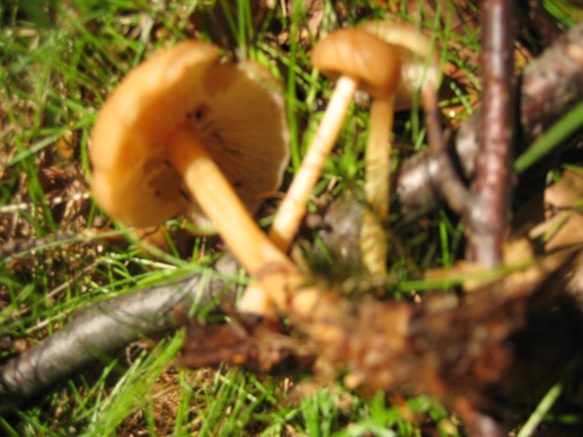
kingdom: Fungi
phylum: Basidiomycota
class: Agaricomycetes
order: Agaricales
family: Omphalotaceae
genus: Gymnopus
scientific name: Gymnopus dryophilus
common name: løv-fladhat
